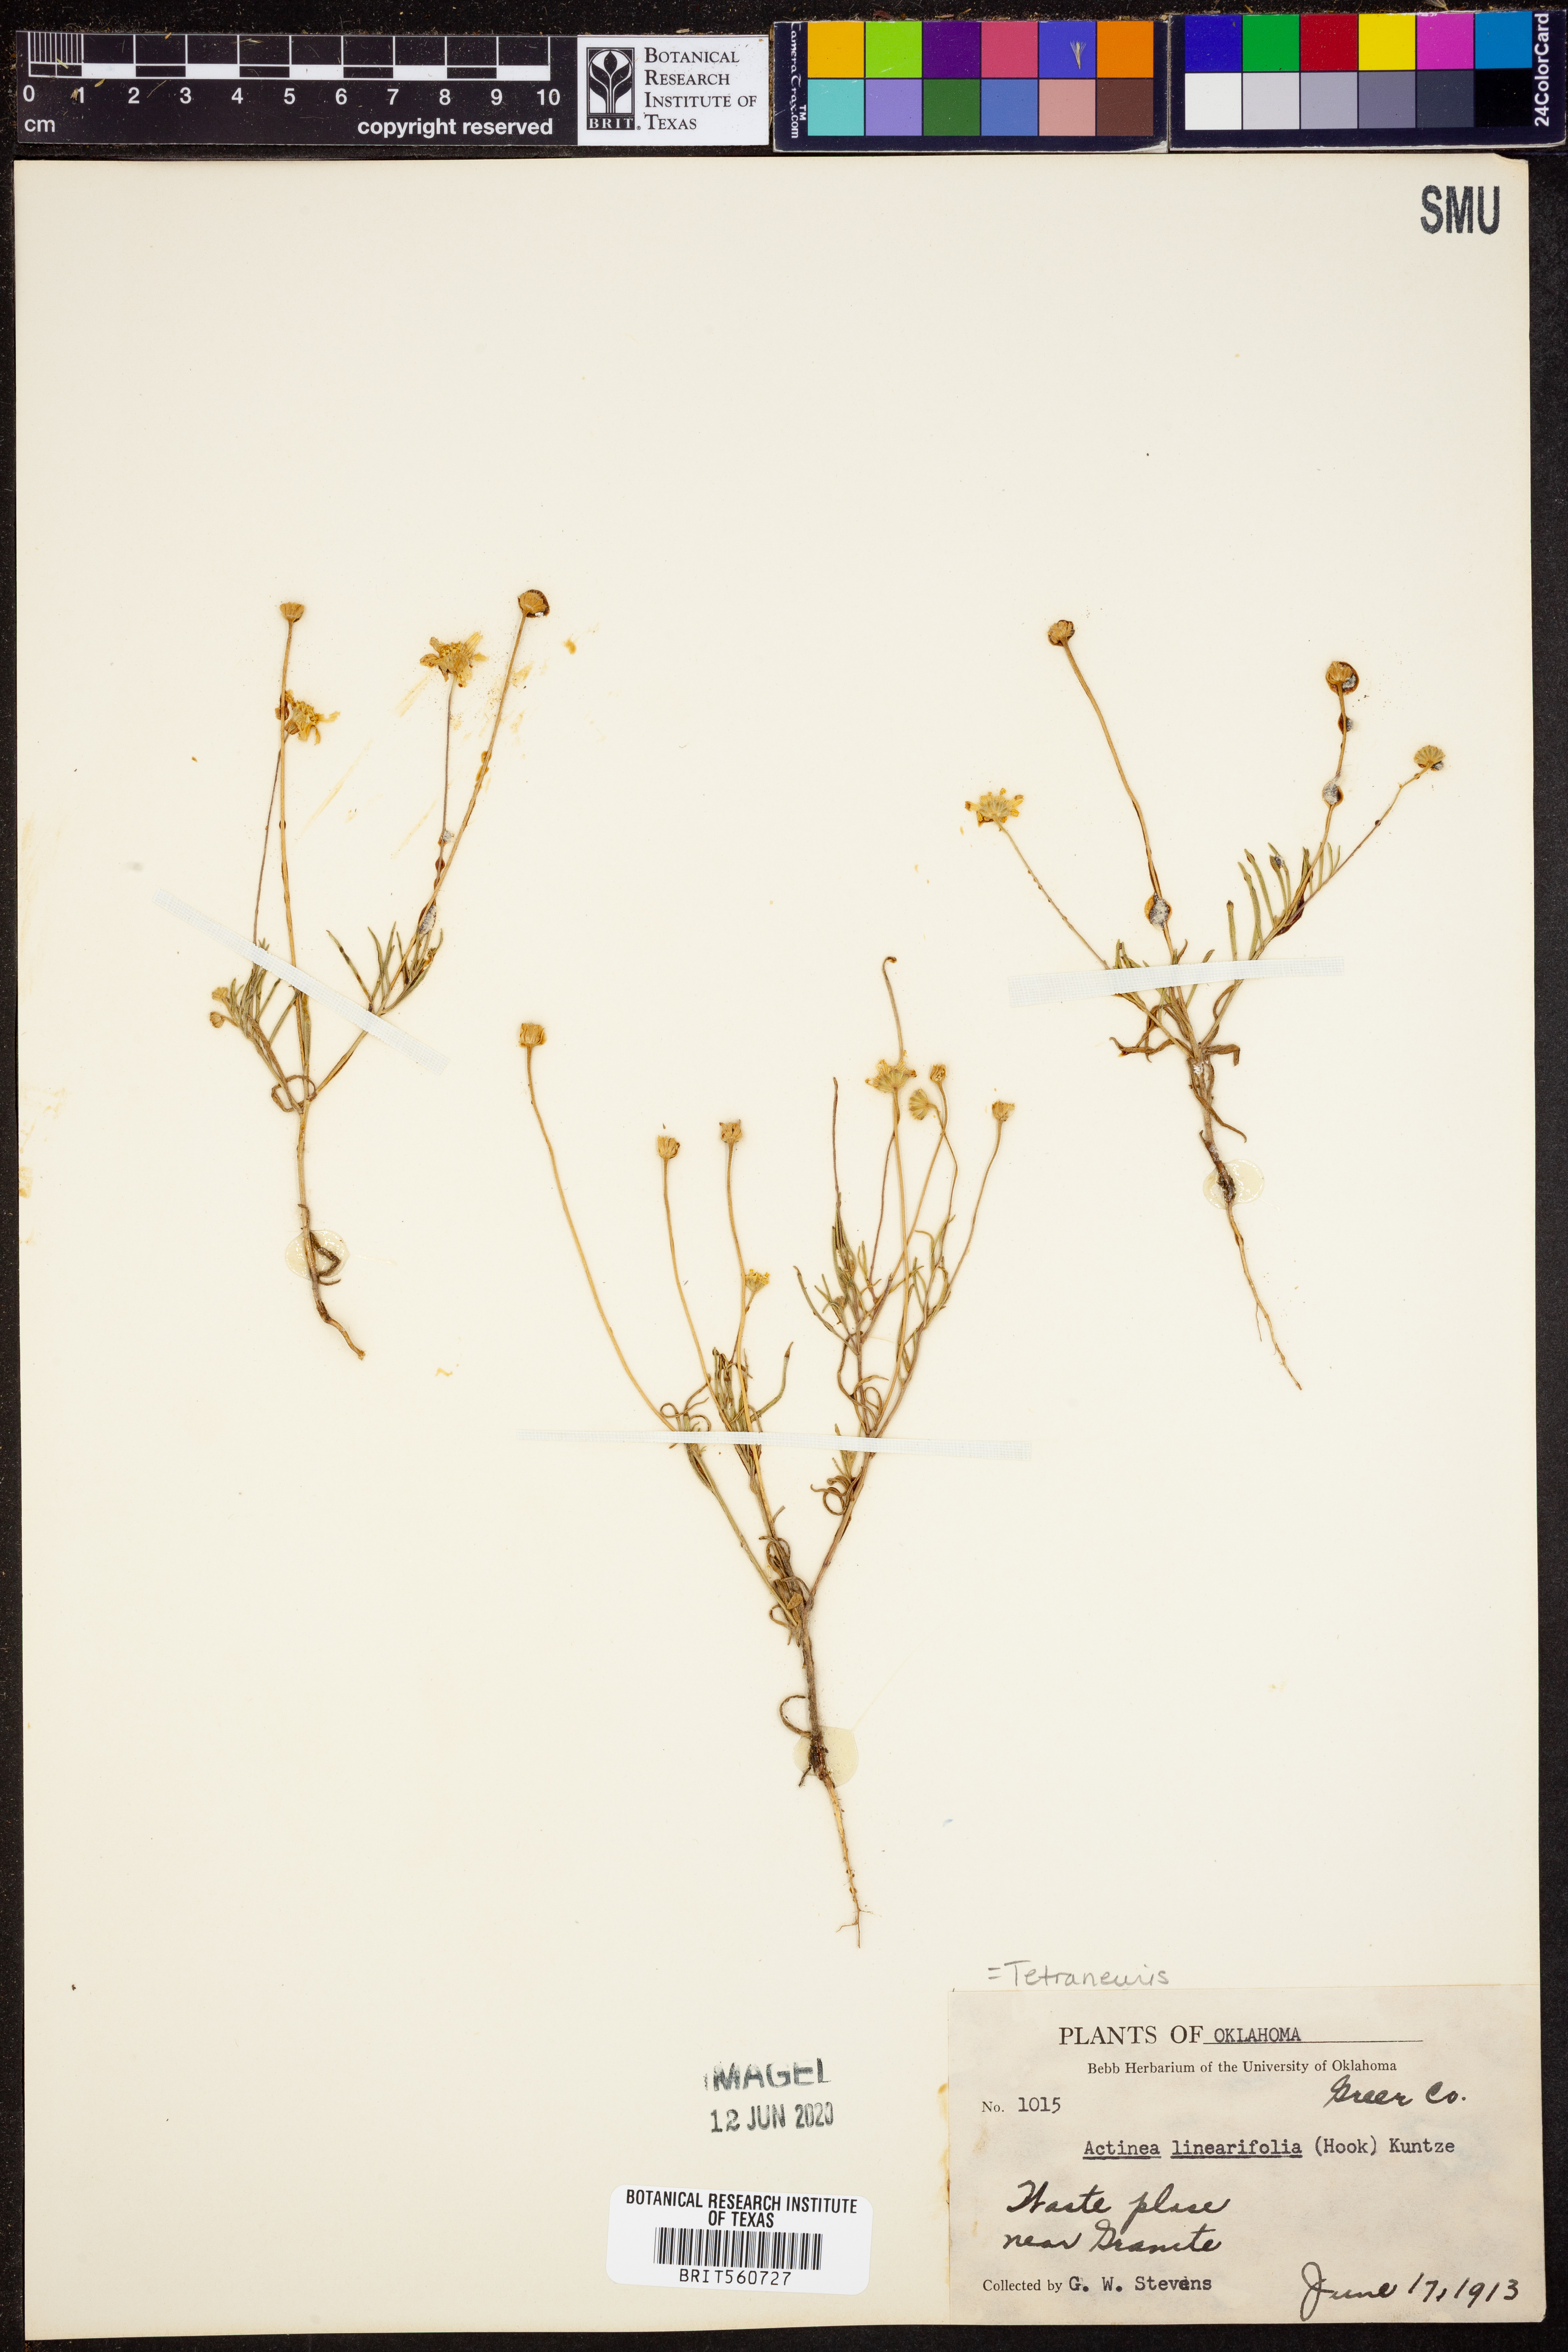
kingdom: Plantae
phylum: Tracheophyta
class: Magnoliopsida
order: Asterales
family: Asteraceae
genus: Tetraneuris
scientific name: Tetraneuris linearifolia
